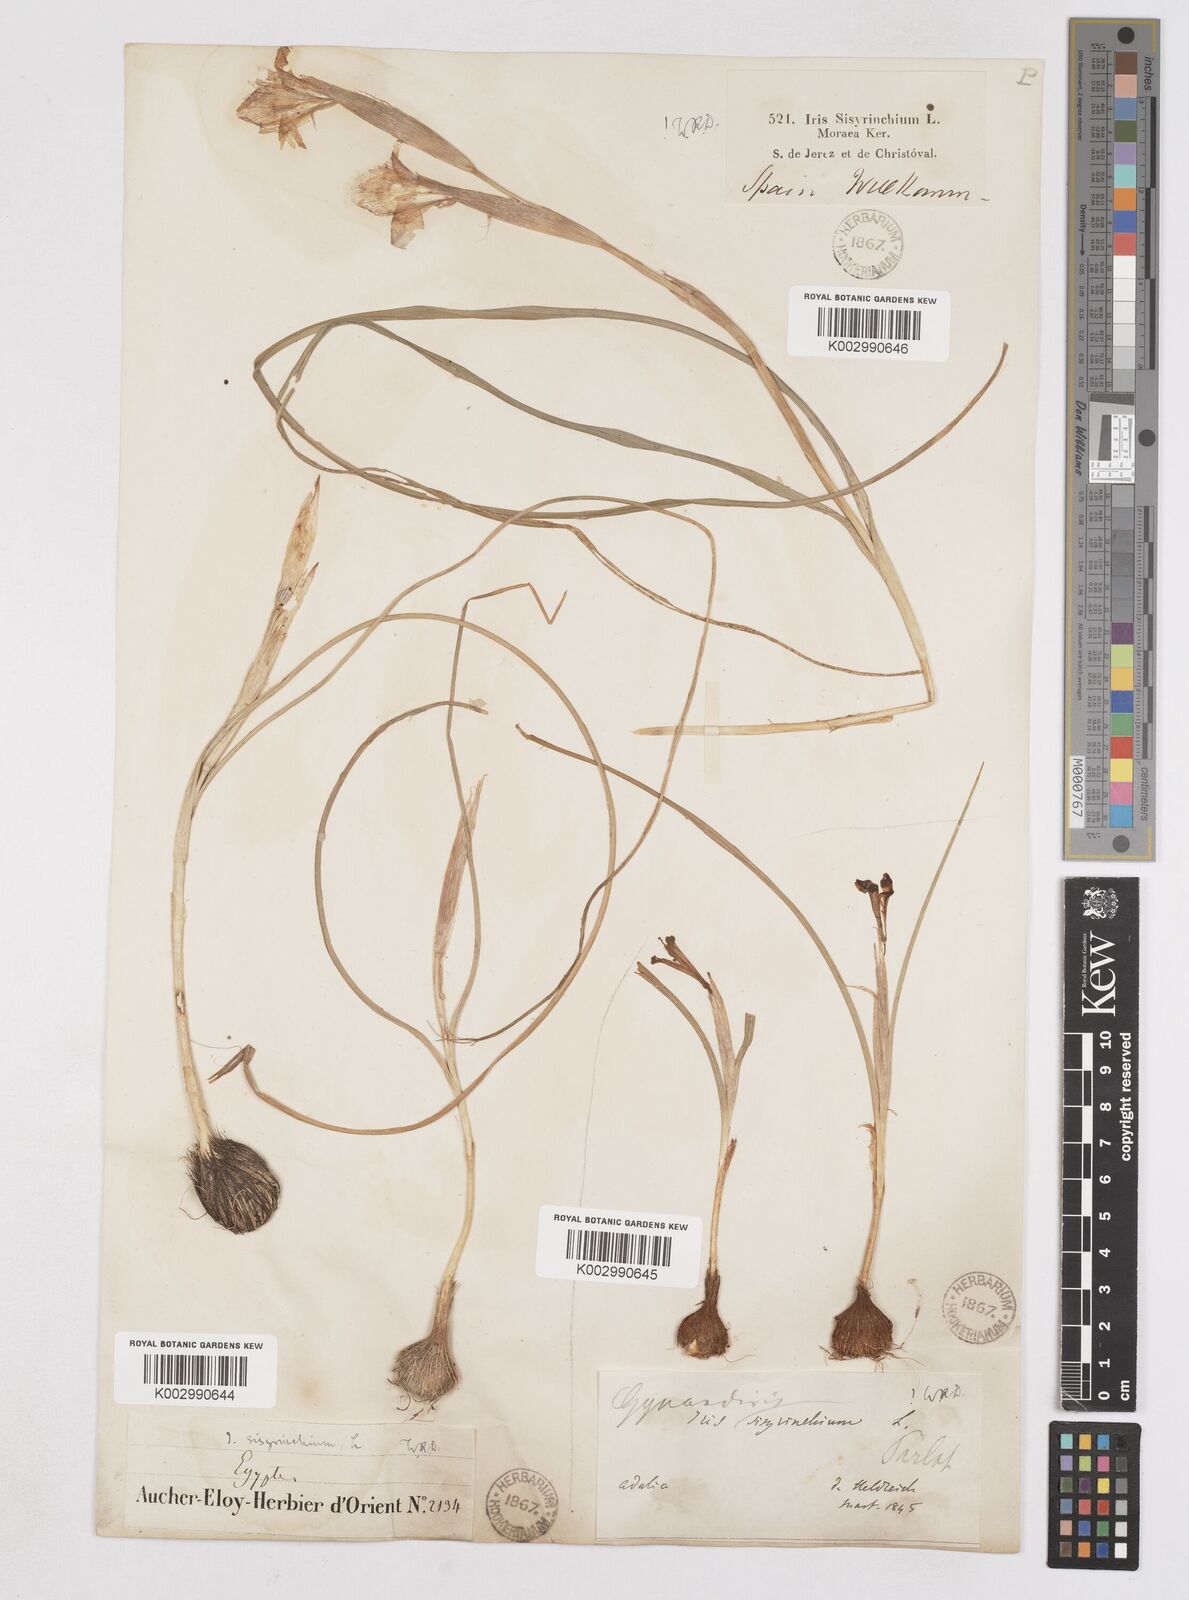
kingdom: Plantae
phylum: Tracheophyta
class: Liliopsida
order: Asparagales
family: Iridaceae
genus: Moraea
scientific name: Moraea sisyrinchium
